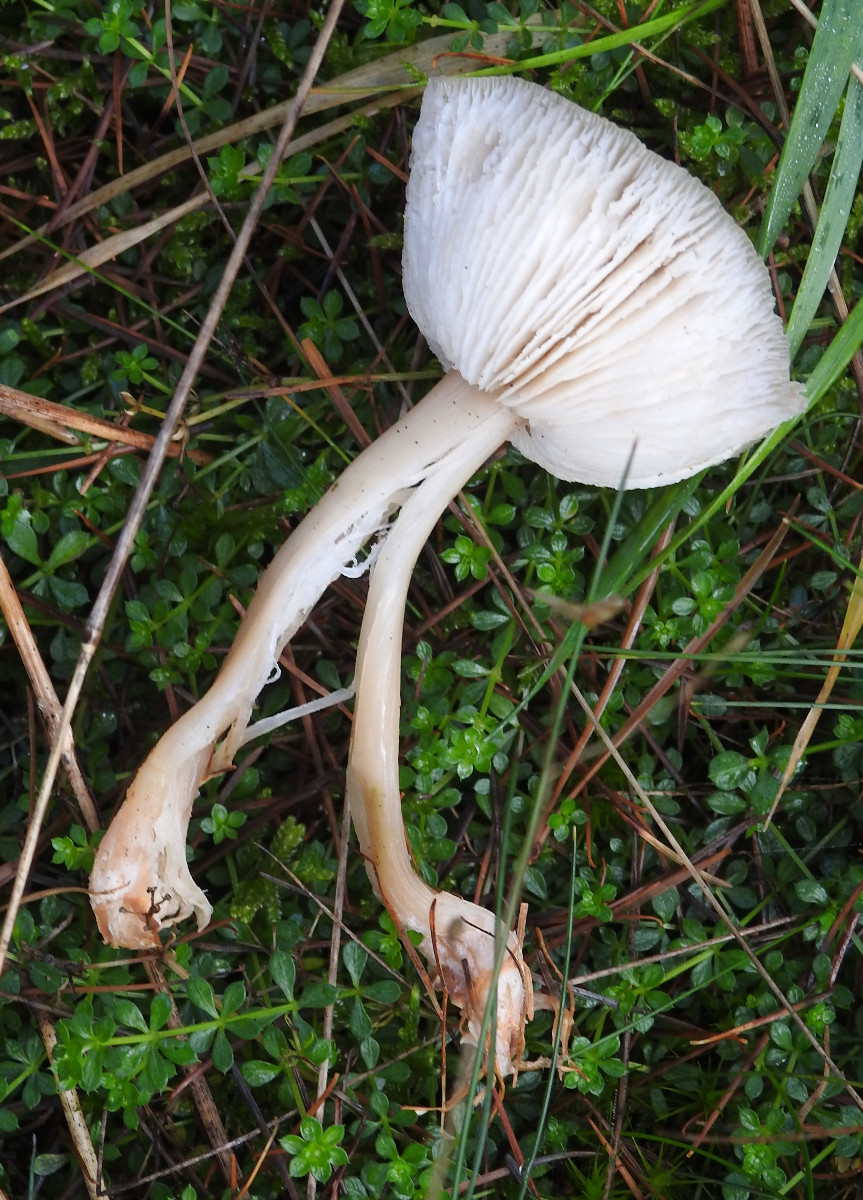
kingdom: Fungi
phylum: Basidiomycota
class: Agaricomycetes
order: Agaricales
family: Omphalotaceae
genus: Rhodocollybia
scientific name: Rhodocollybia asema
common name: horngrå fladhat
